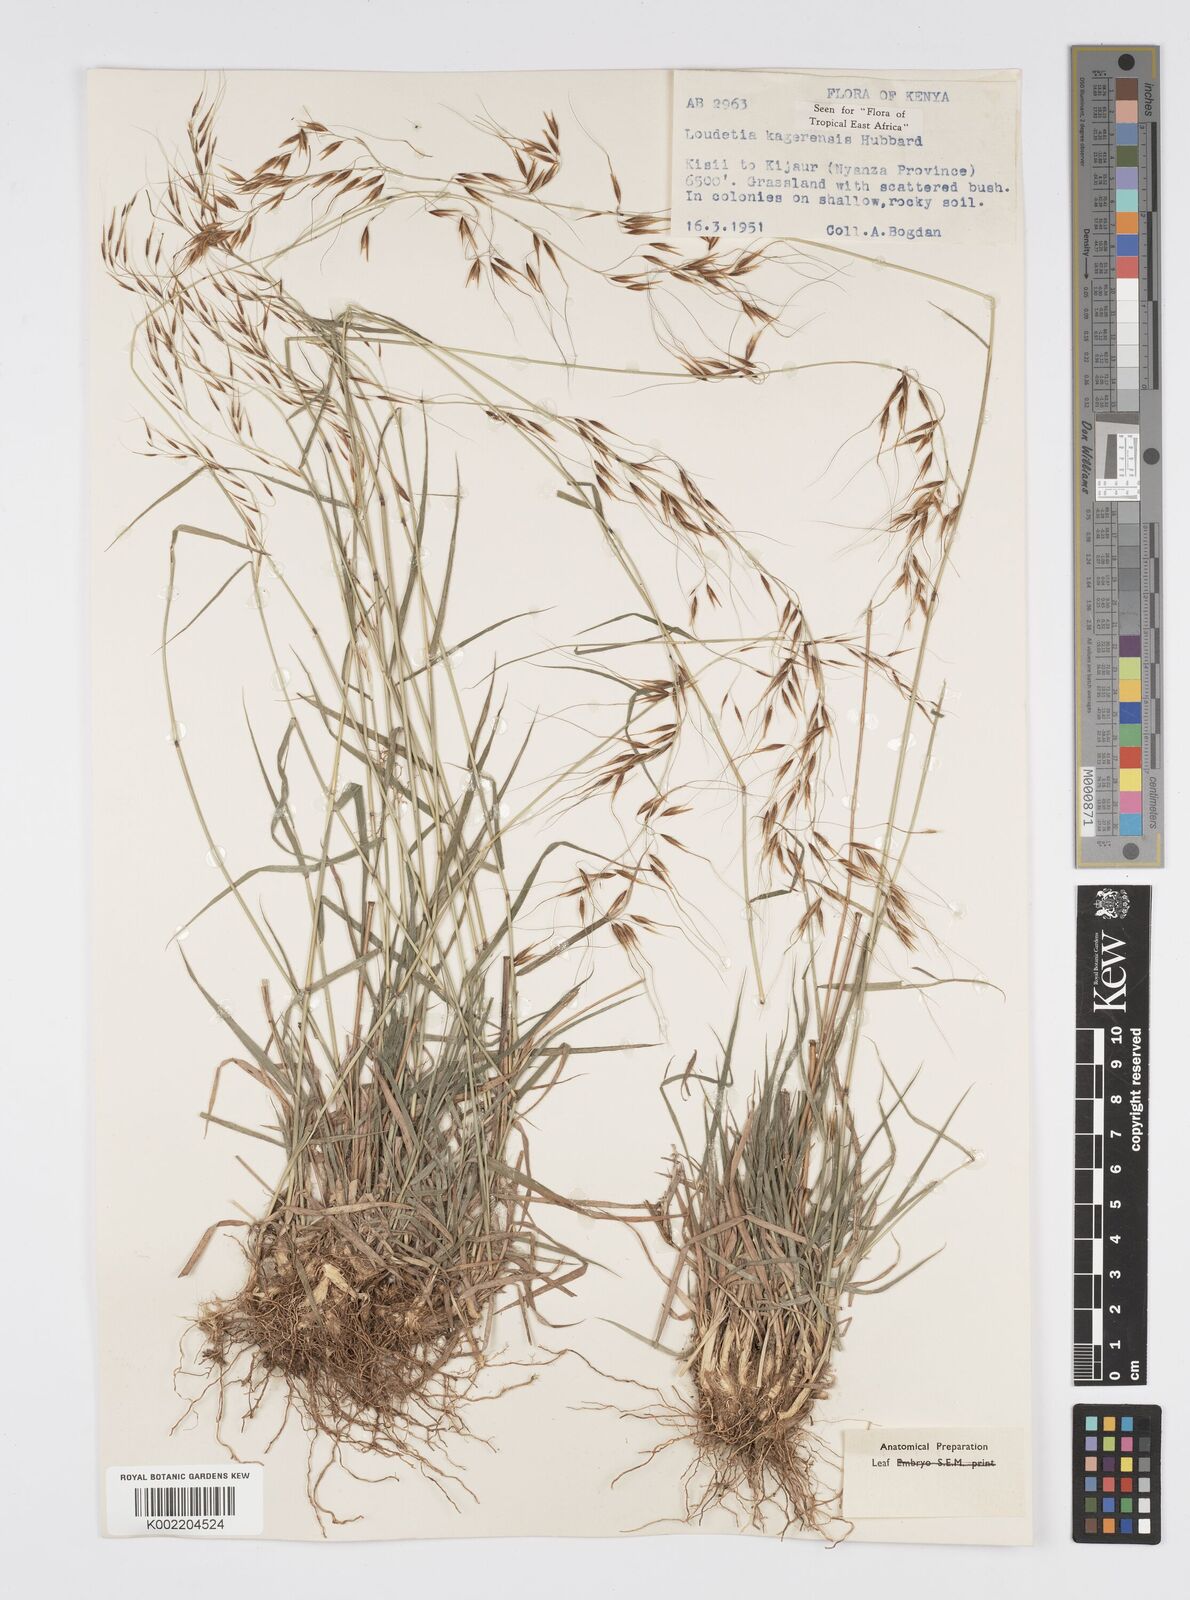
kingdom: Plantae
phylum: Tracheophyta
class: Liliopsida
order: Poales
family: Poaceae
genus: Loudetia
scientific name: Loudetia kagerensis
